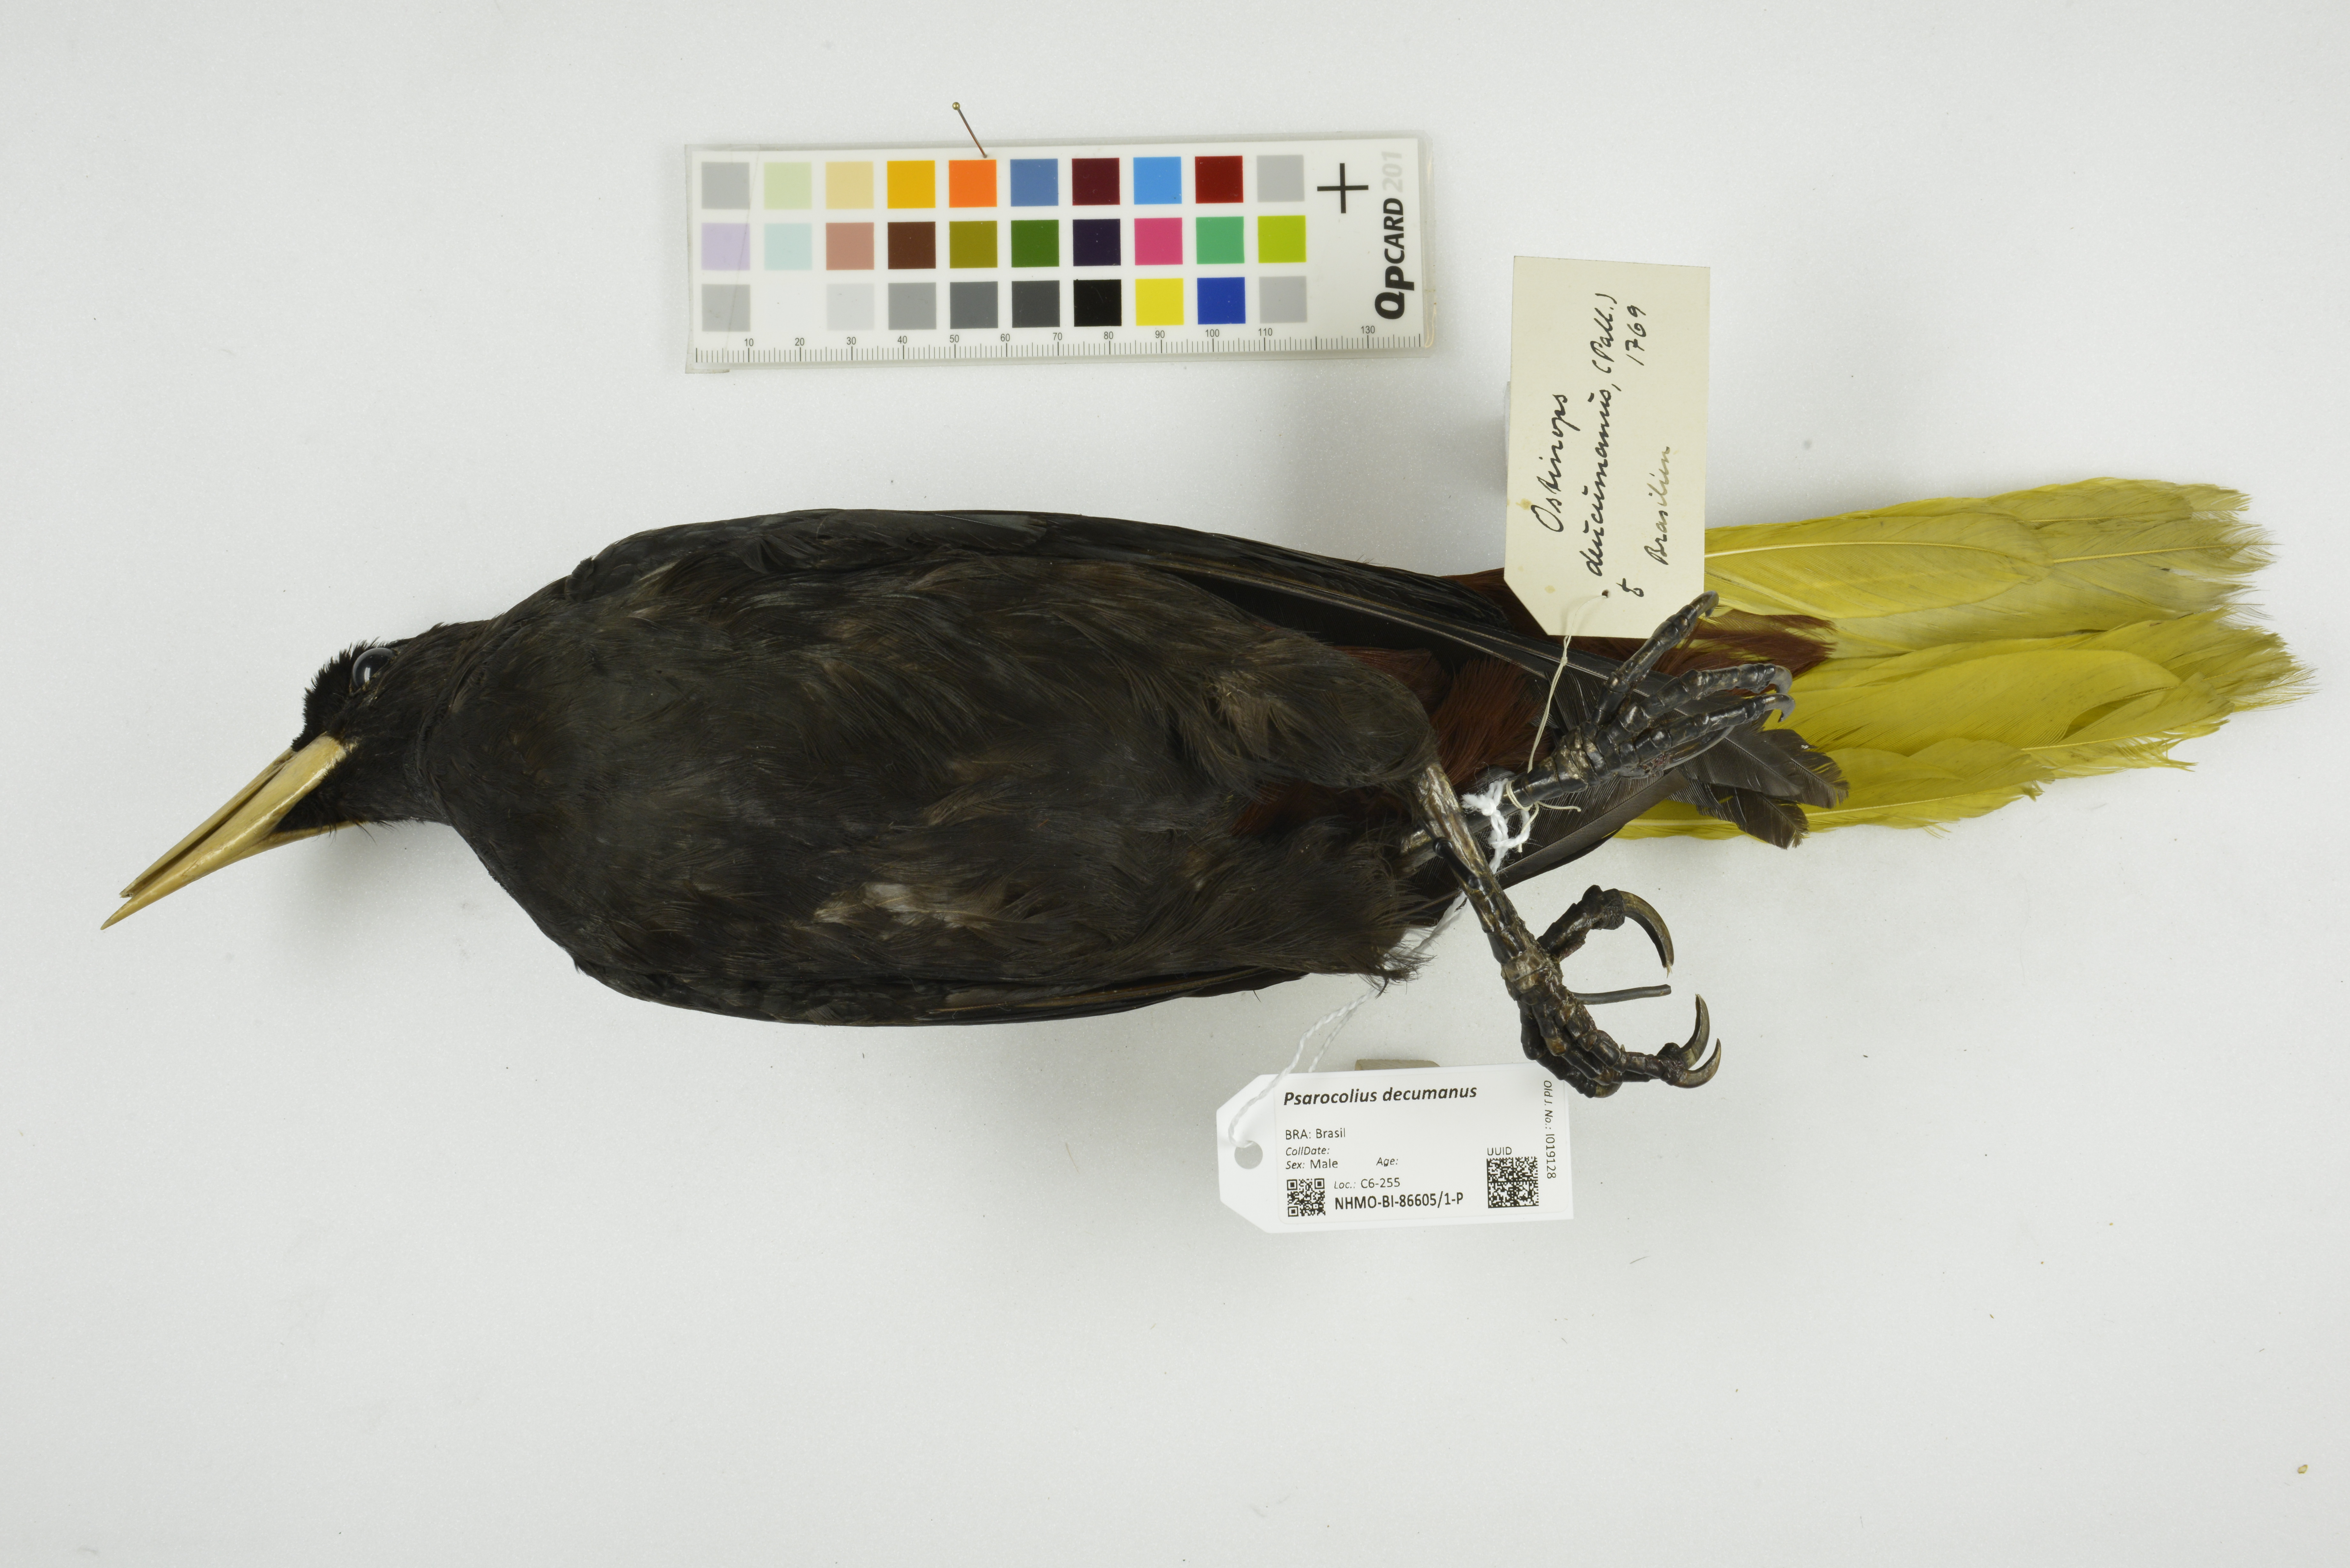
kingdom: Animalia
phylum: Chordata
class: Aves
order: Passeriformes
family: Icteridae
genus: Psarocolius
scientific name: Psarocolius decumanus
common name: Crested oropendola
